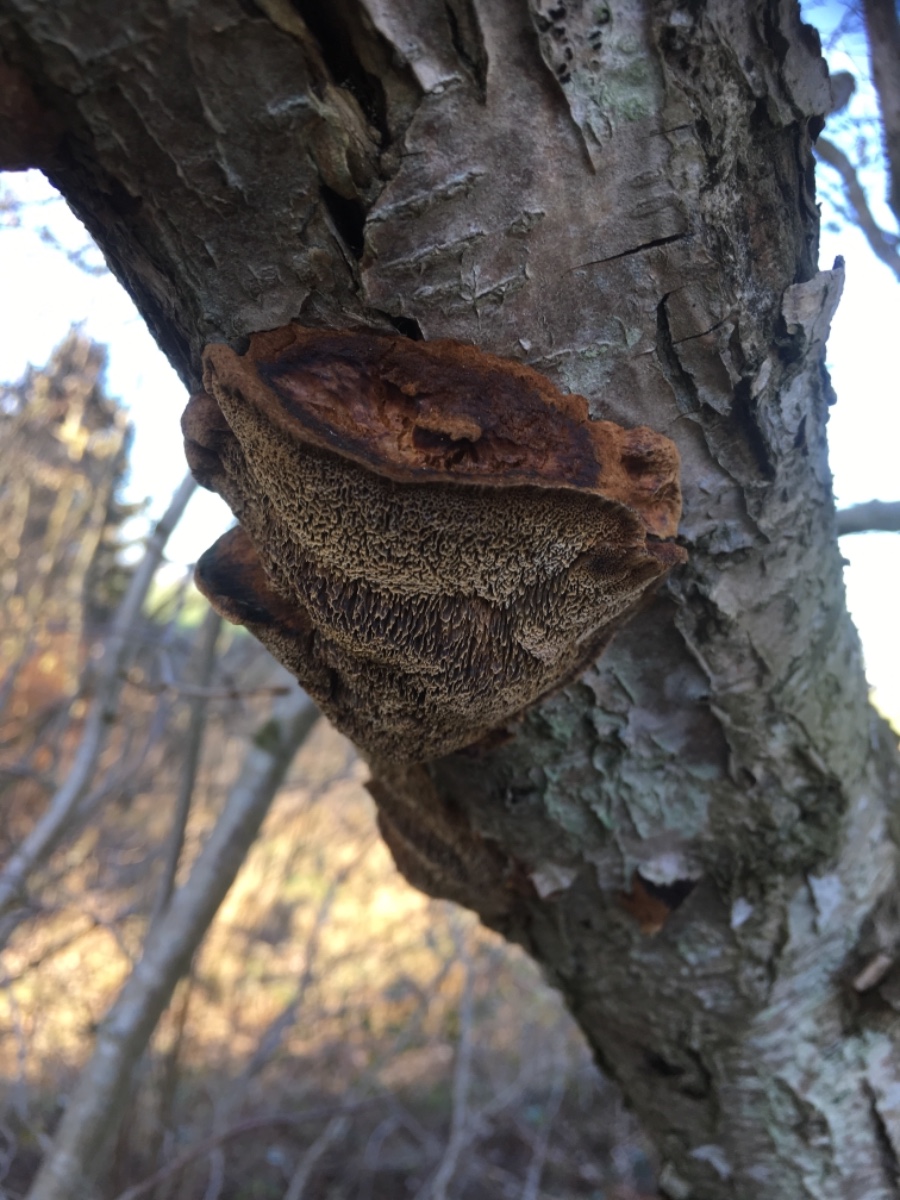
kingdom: Fungi
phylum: Basidiomycota
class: Agaricomycetes
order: Hymenochaetales
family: Hymenochaetaceae
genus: Xanthoporia
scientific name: Xanthoporia radiata
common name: elle-spejlporesvamp
